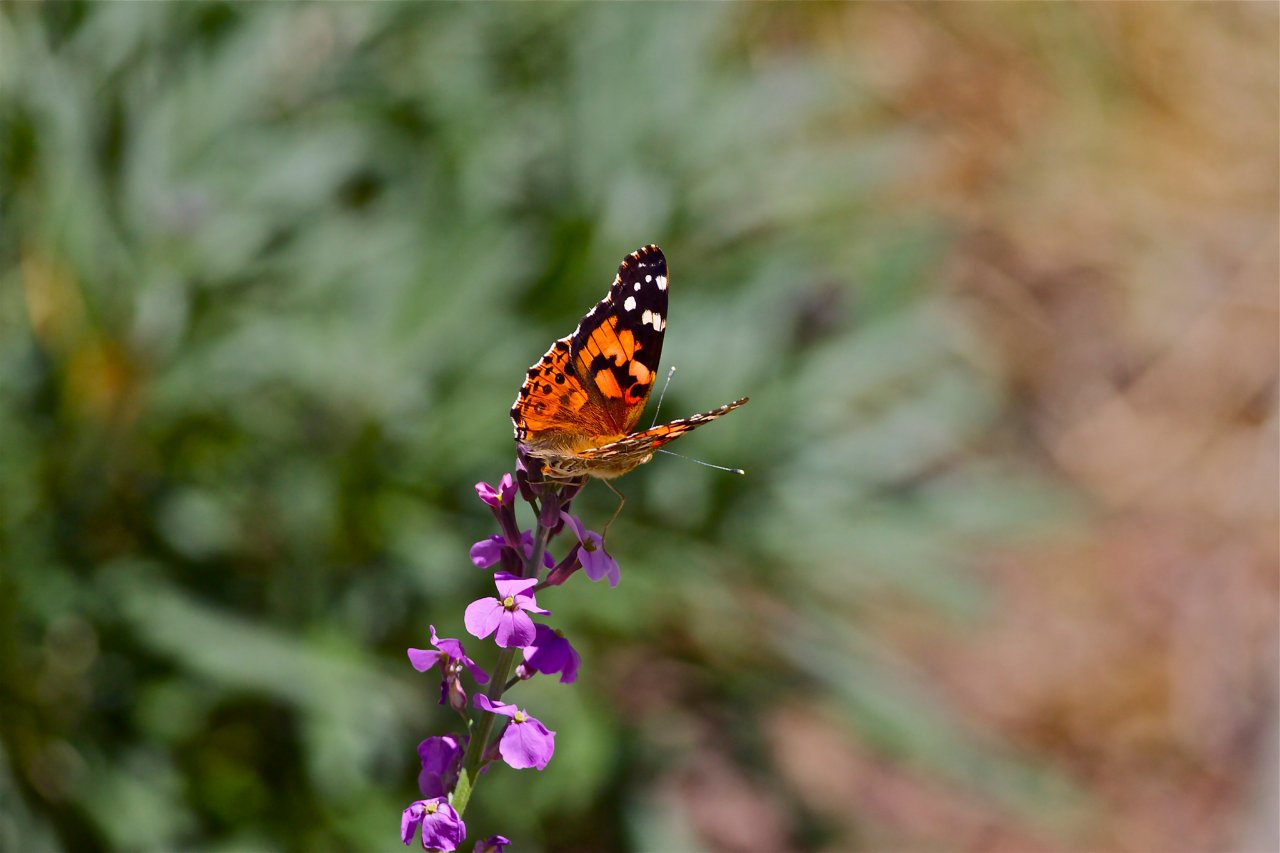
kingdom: Animalia
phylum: Arthropoda
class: Insecta
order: Lepidoptera
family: Nymphalidae
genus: Vanessa
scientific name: Vanessa cardui
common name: Painted Lady
